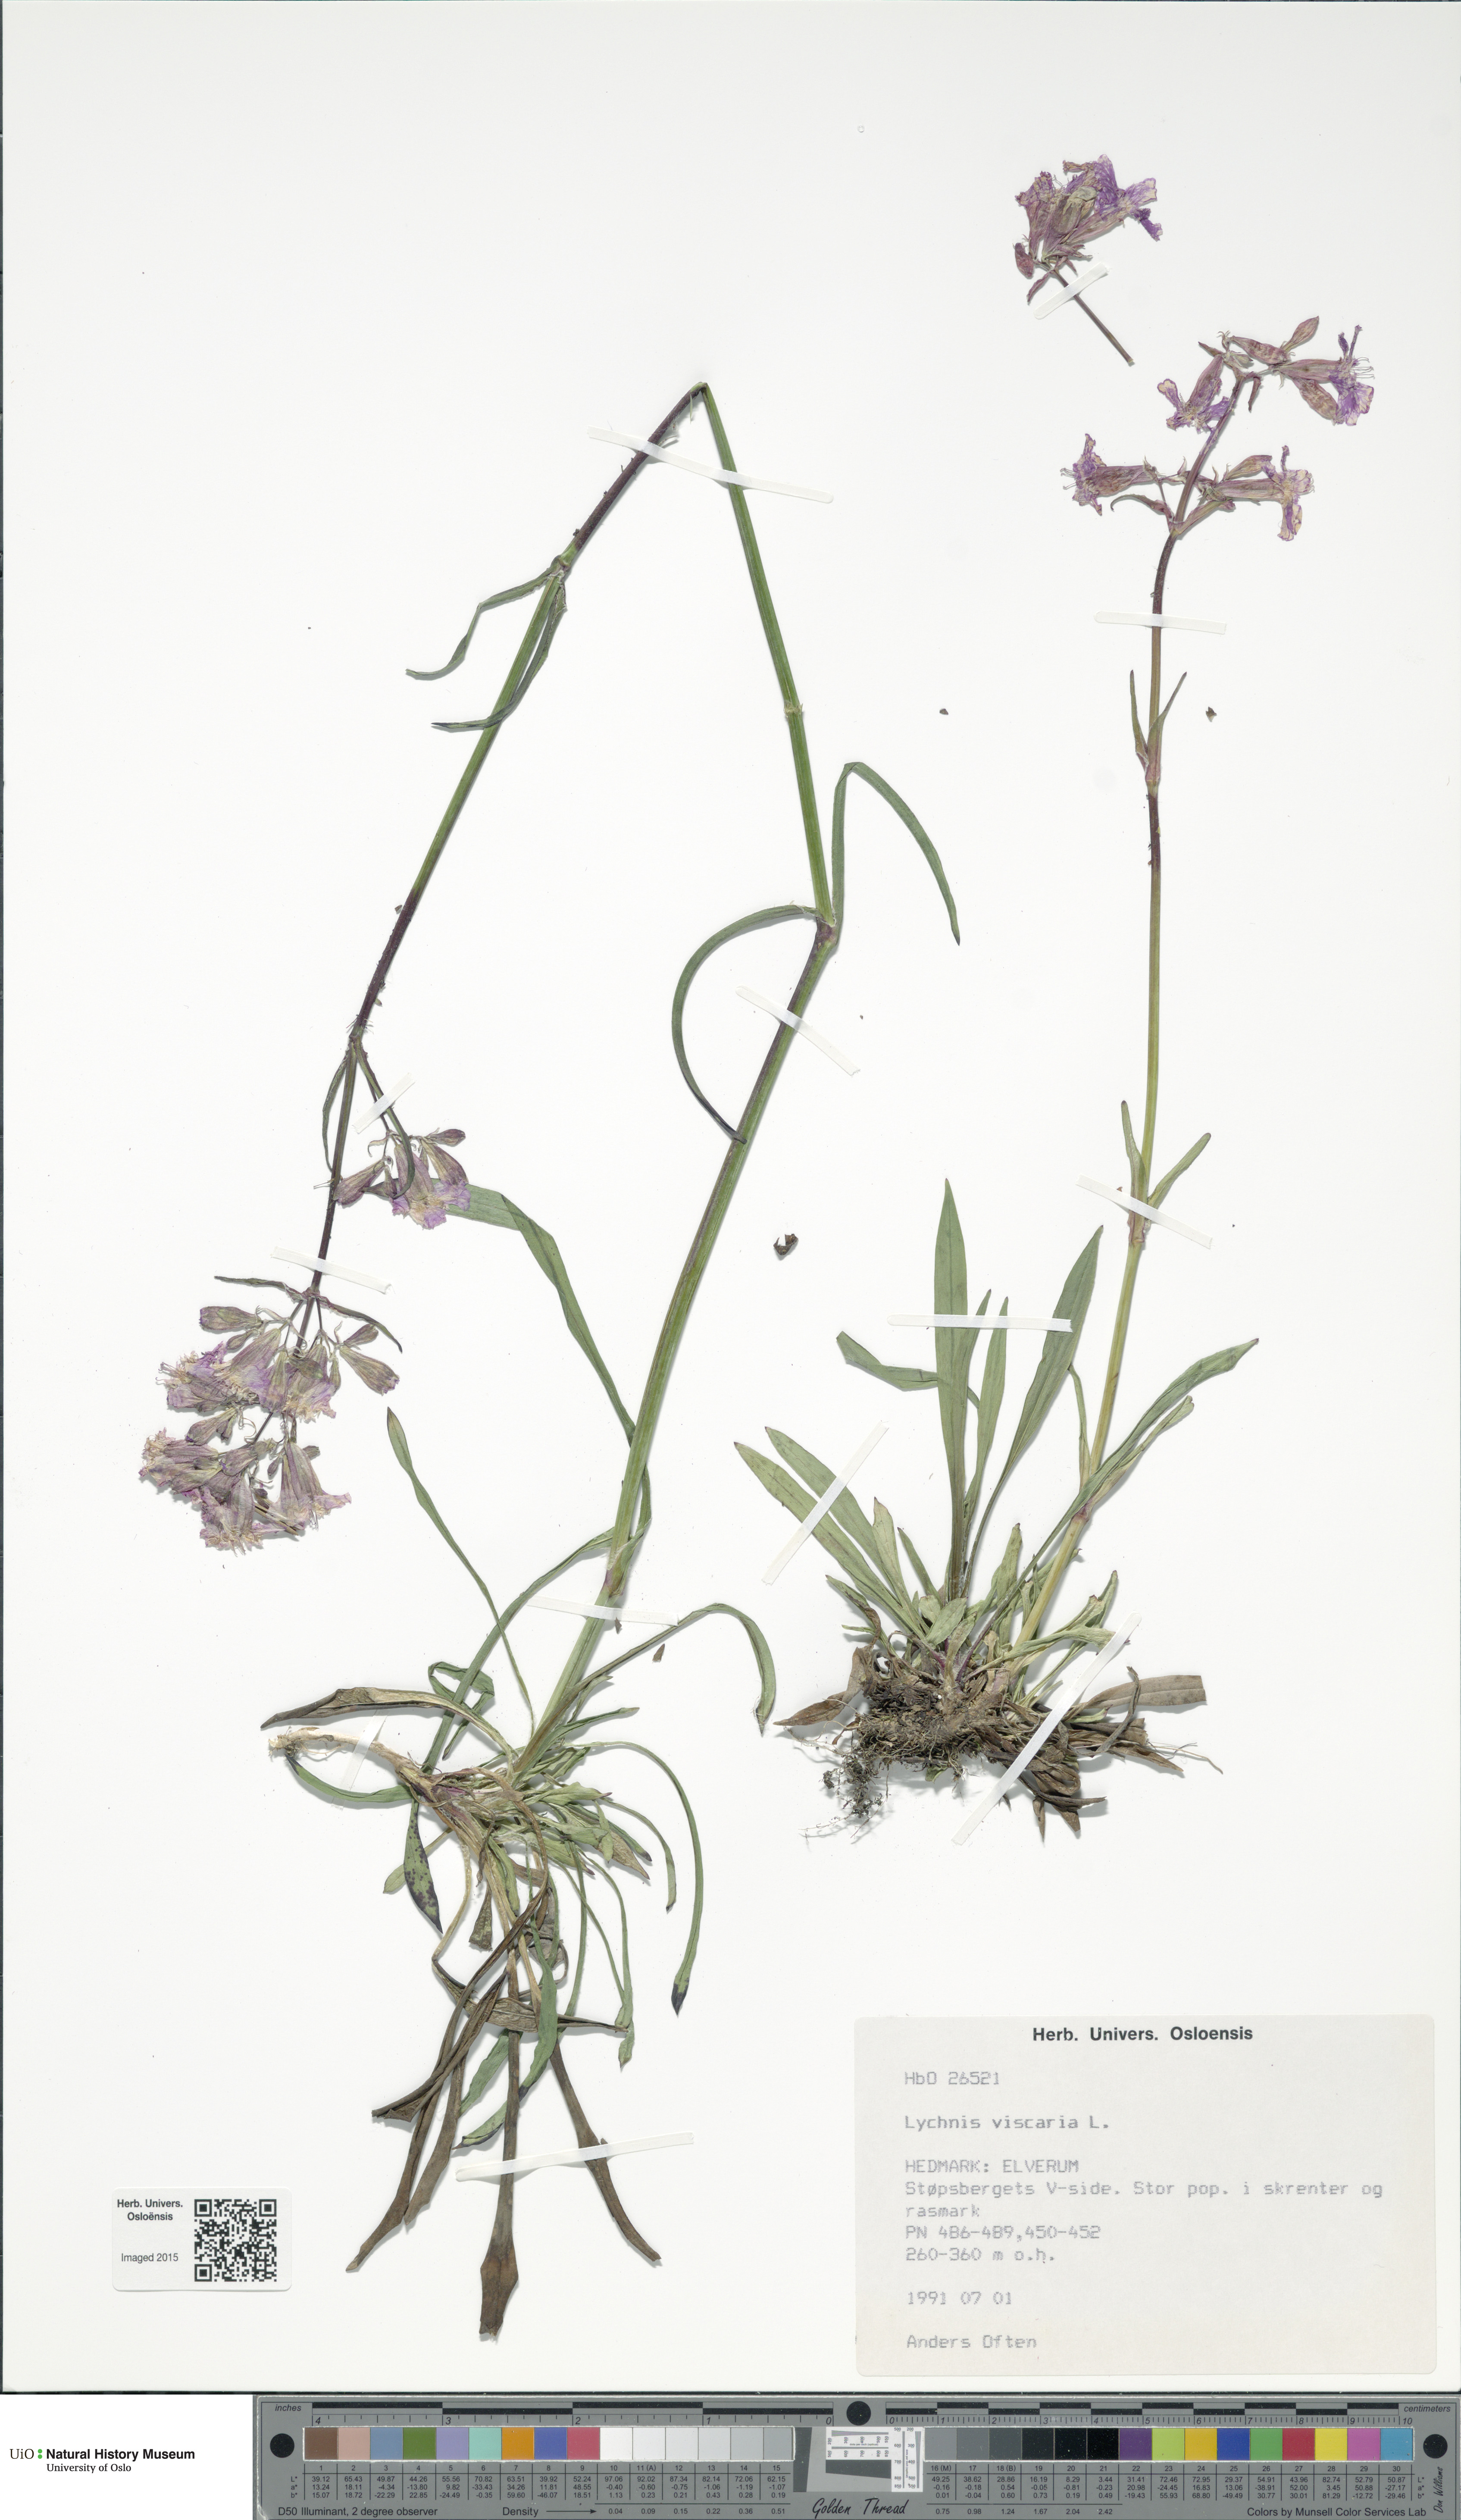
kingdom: Plantae
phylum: Tracheophyta
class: Magnoliopsida
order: Caryophyllales
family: Caryophyllaceae
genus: Viscaria
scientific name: Viscaria vulgaris
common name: Clammy campion
